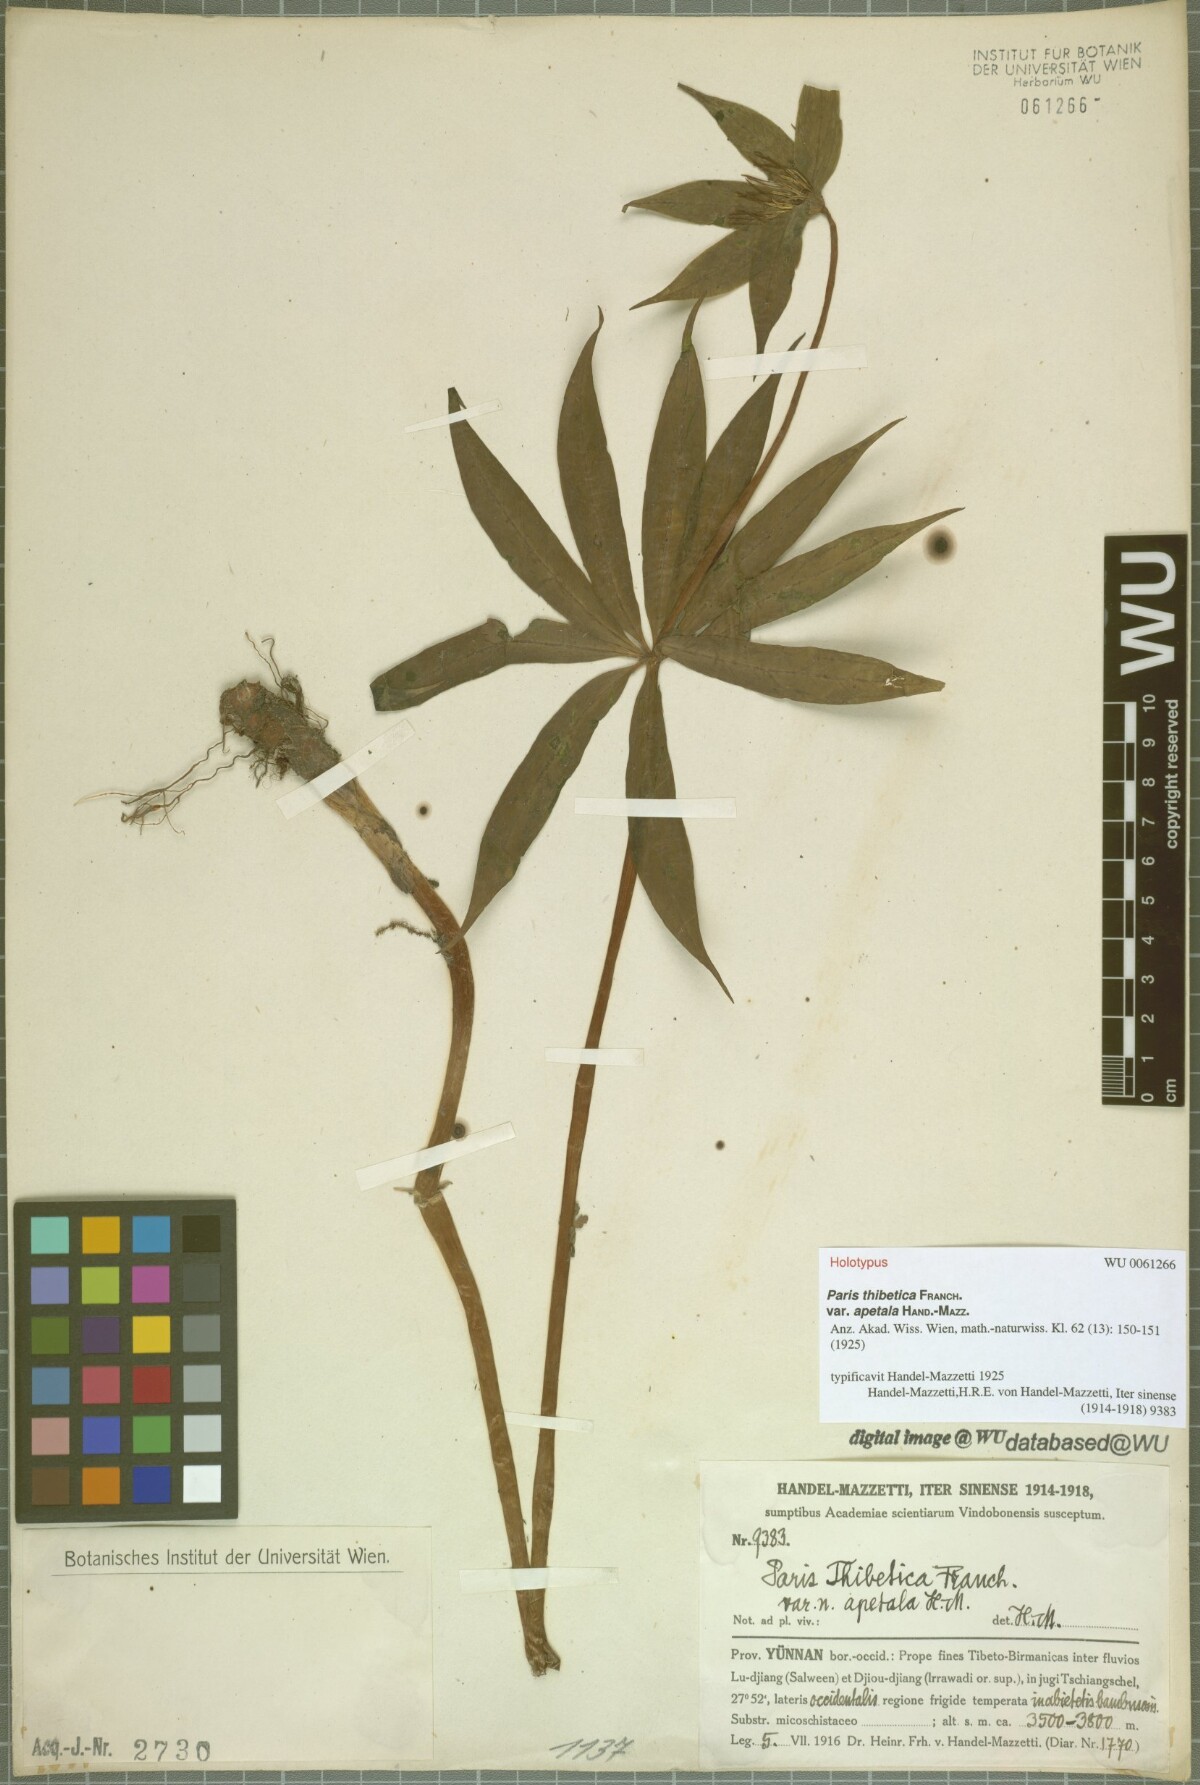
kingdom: Plantae
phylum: Tracheophyta
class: Liliopsida
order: Liliales
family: Melanthiaceae
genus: Paris
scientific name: Paris thibetica
